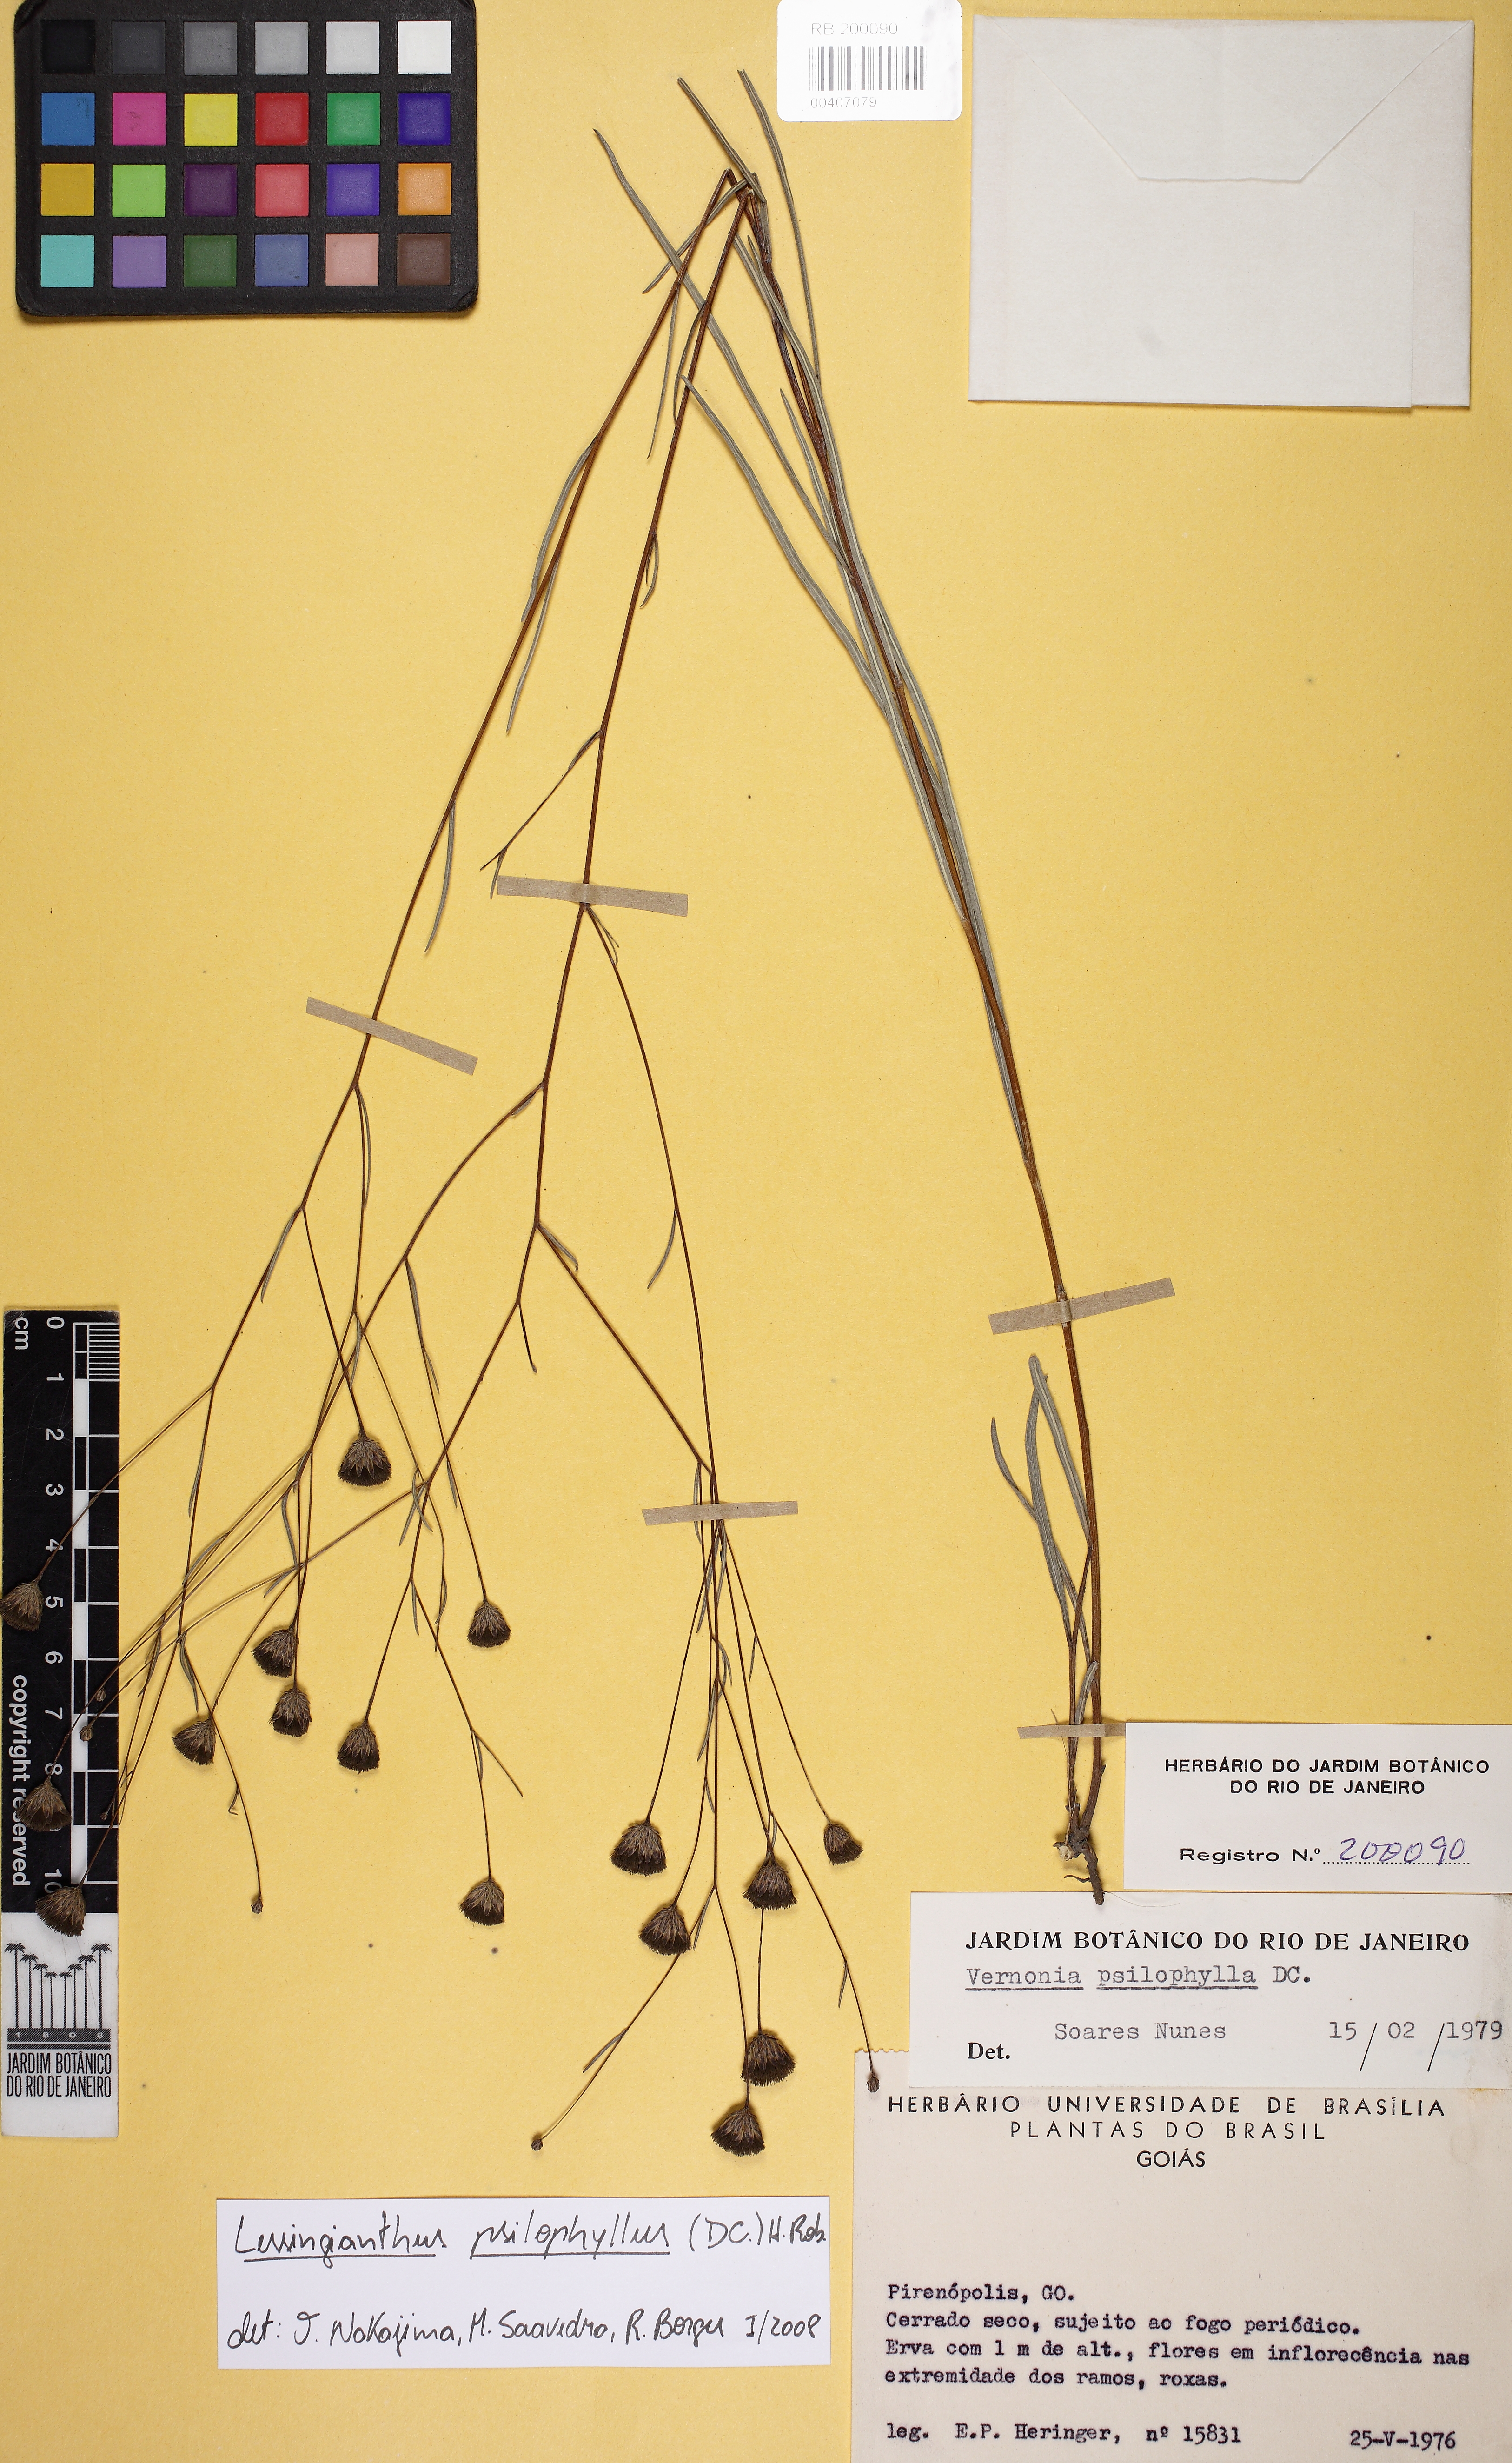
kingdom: Plantae
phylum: Tracheophyta
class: Magnoliopsida
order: Asterales
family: Asteraceae
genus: Lessingianthus
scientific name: Lessingianthus psilophyllus
